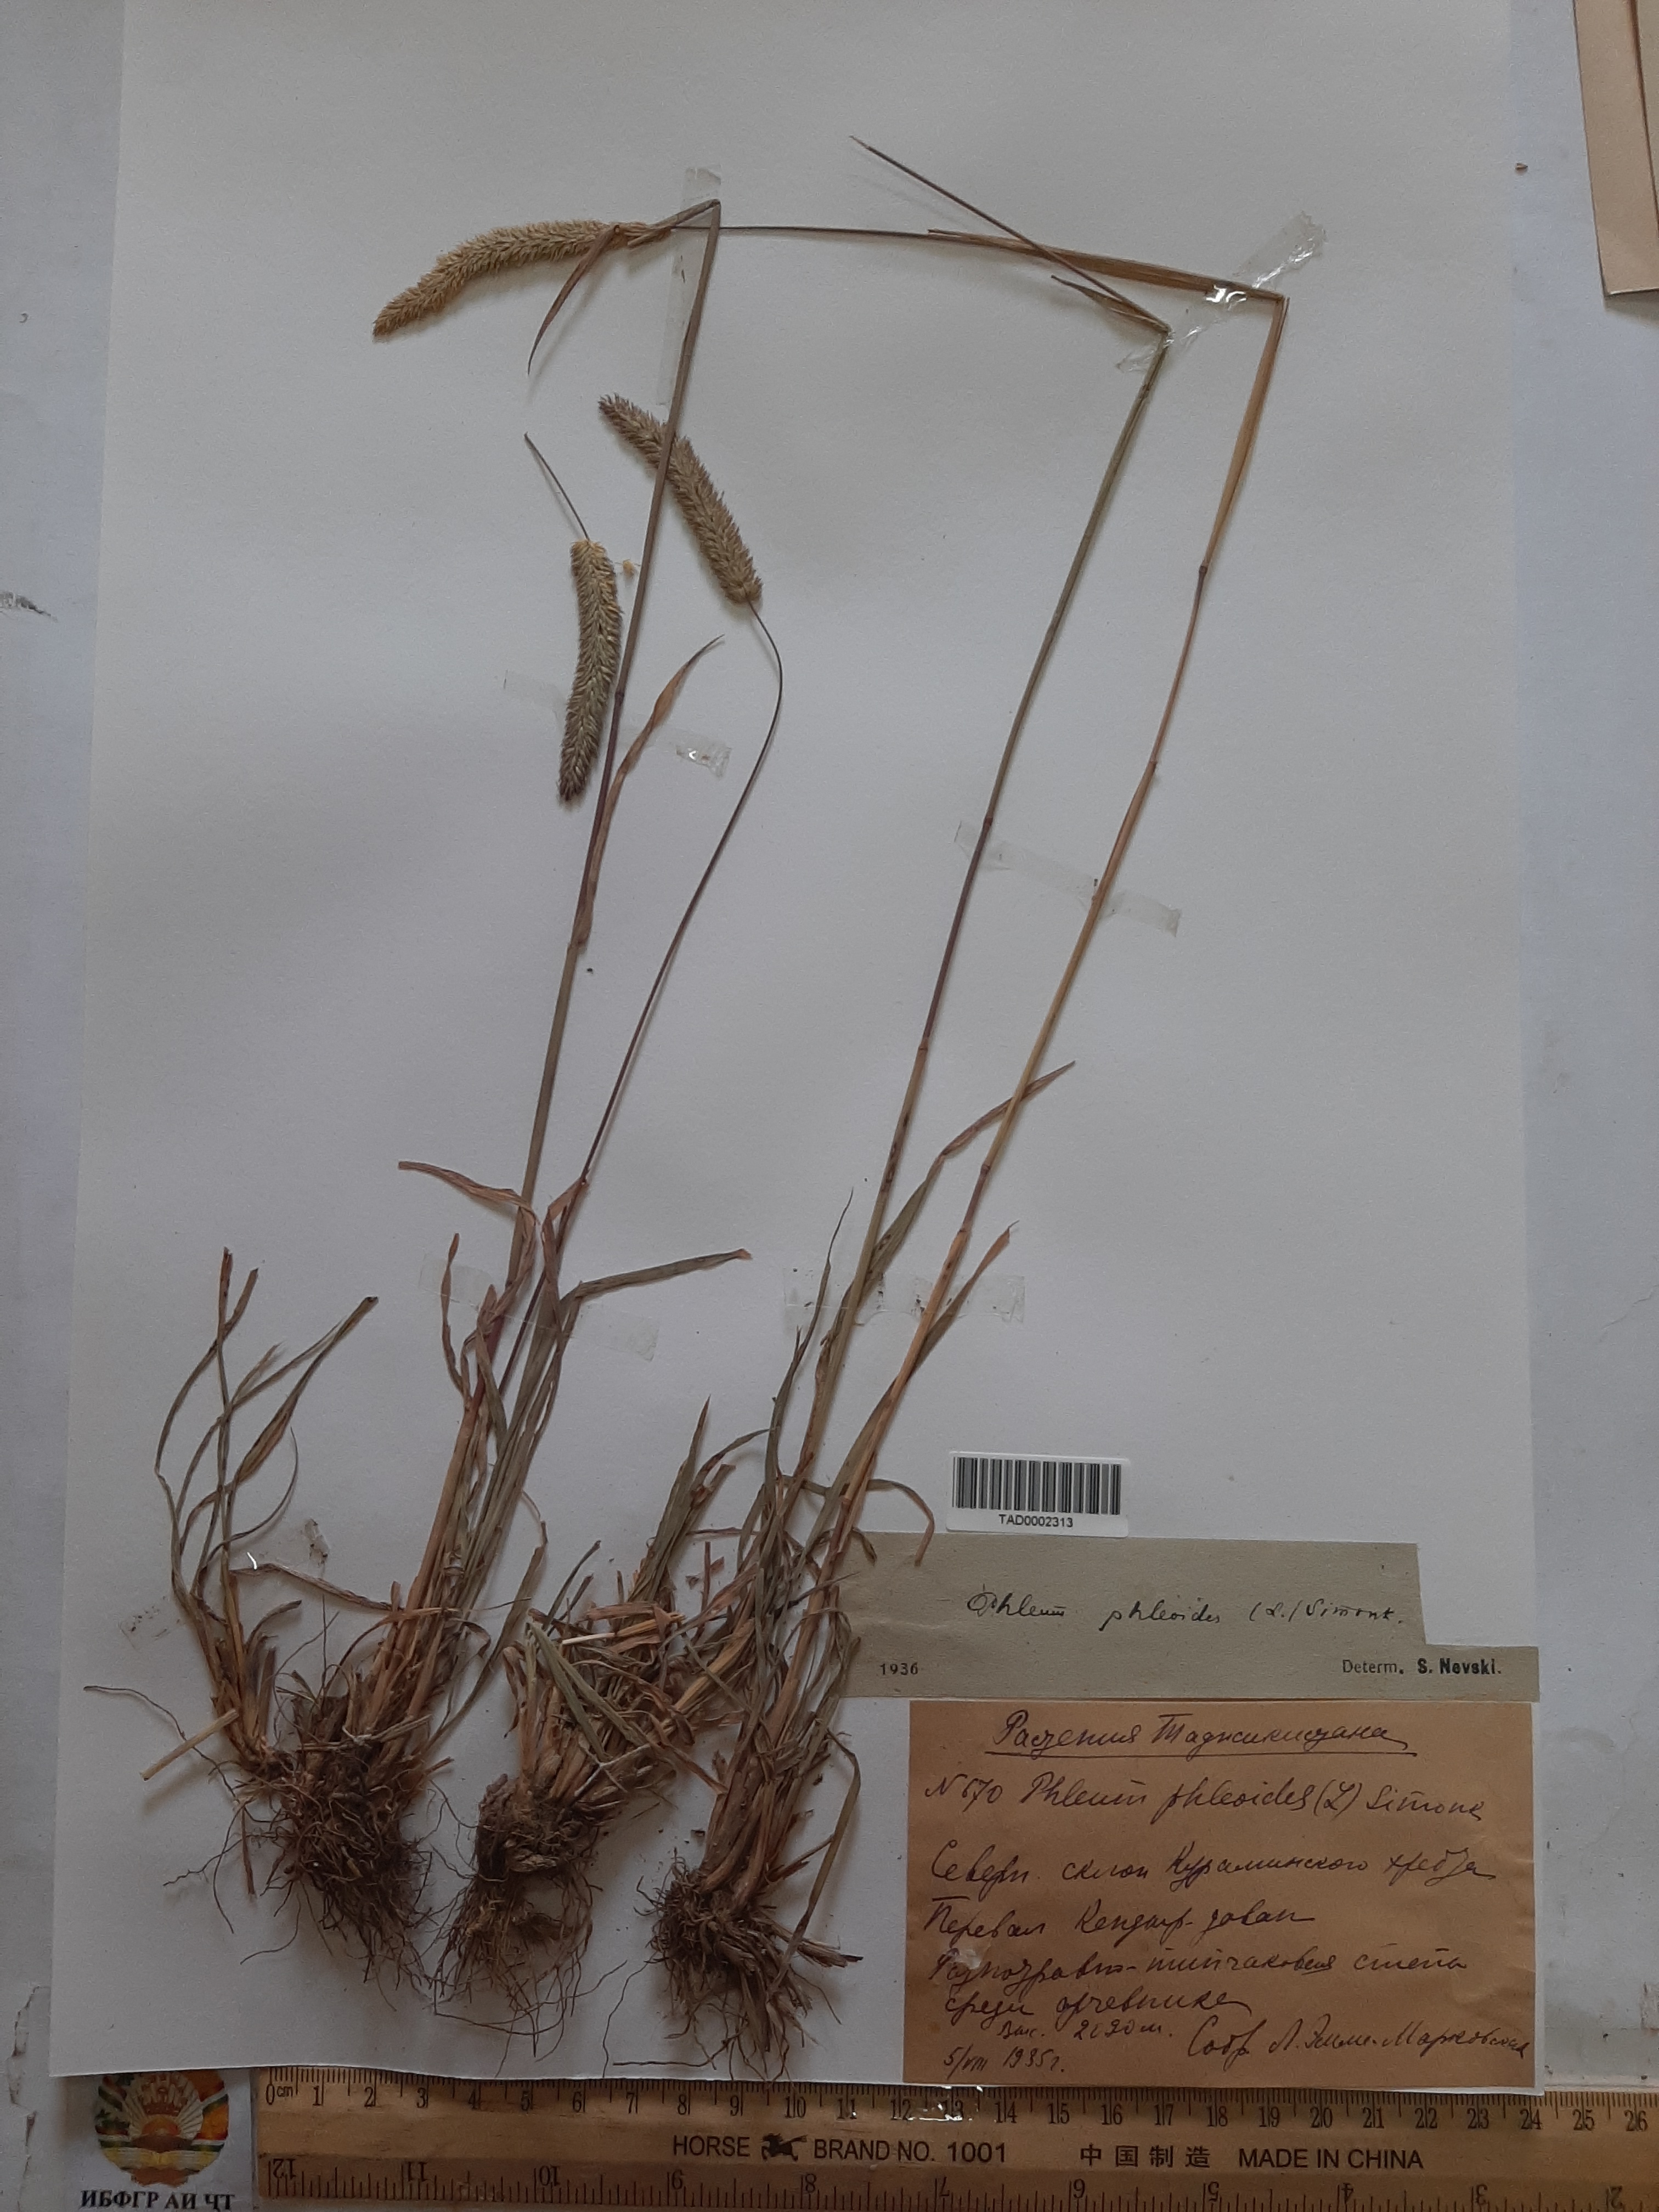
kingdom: Plantae
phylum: Tracheophyta
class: Liliopsida
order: Poales
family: Poaceae
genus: Phleum
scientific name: Phleum paniculatum
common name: British timothy
